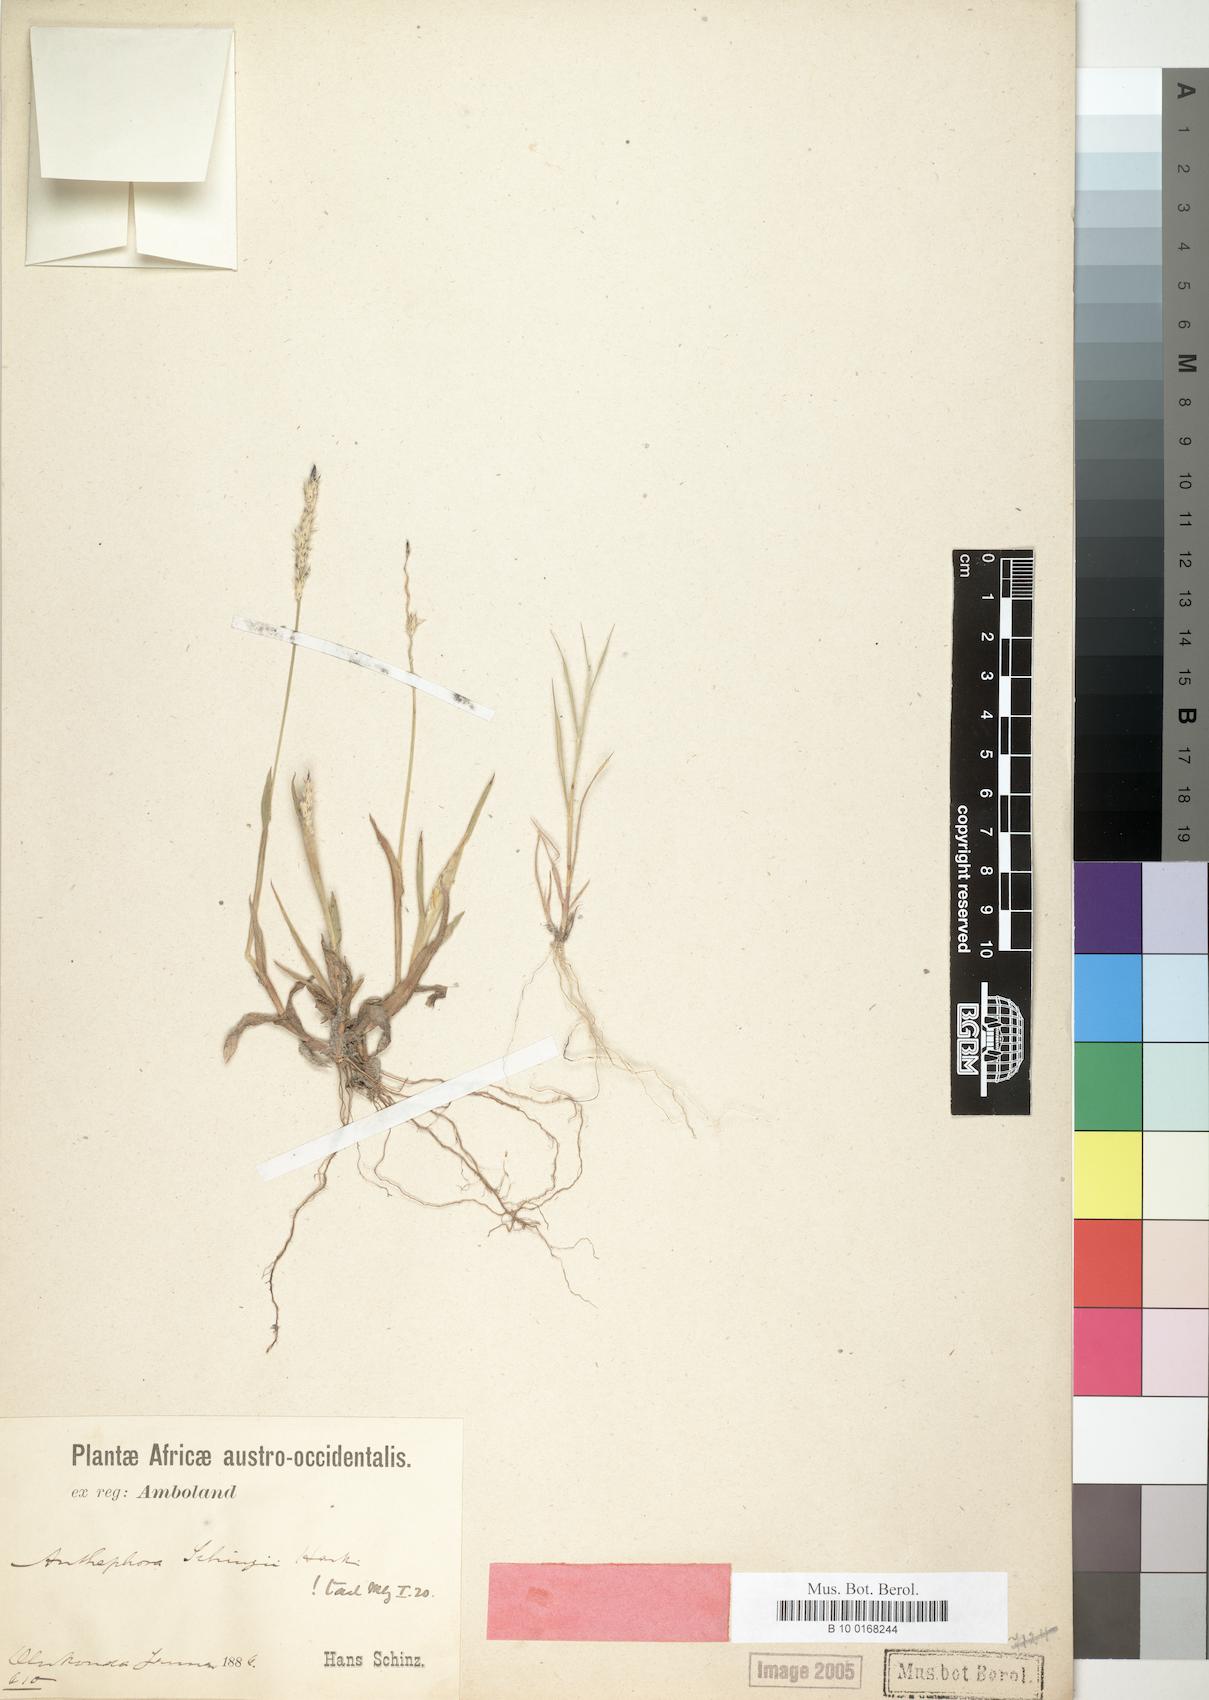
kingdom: Plantae
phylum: Tracheophyta
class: Liliopsida
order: Poales
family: Poaceae
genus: Anthephora
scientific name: Anthephora schinzii
